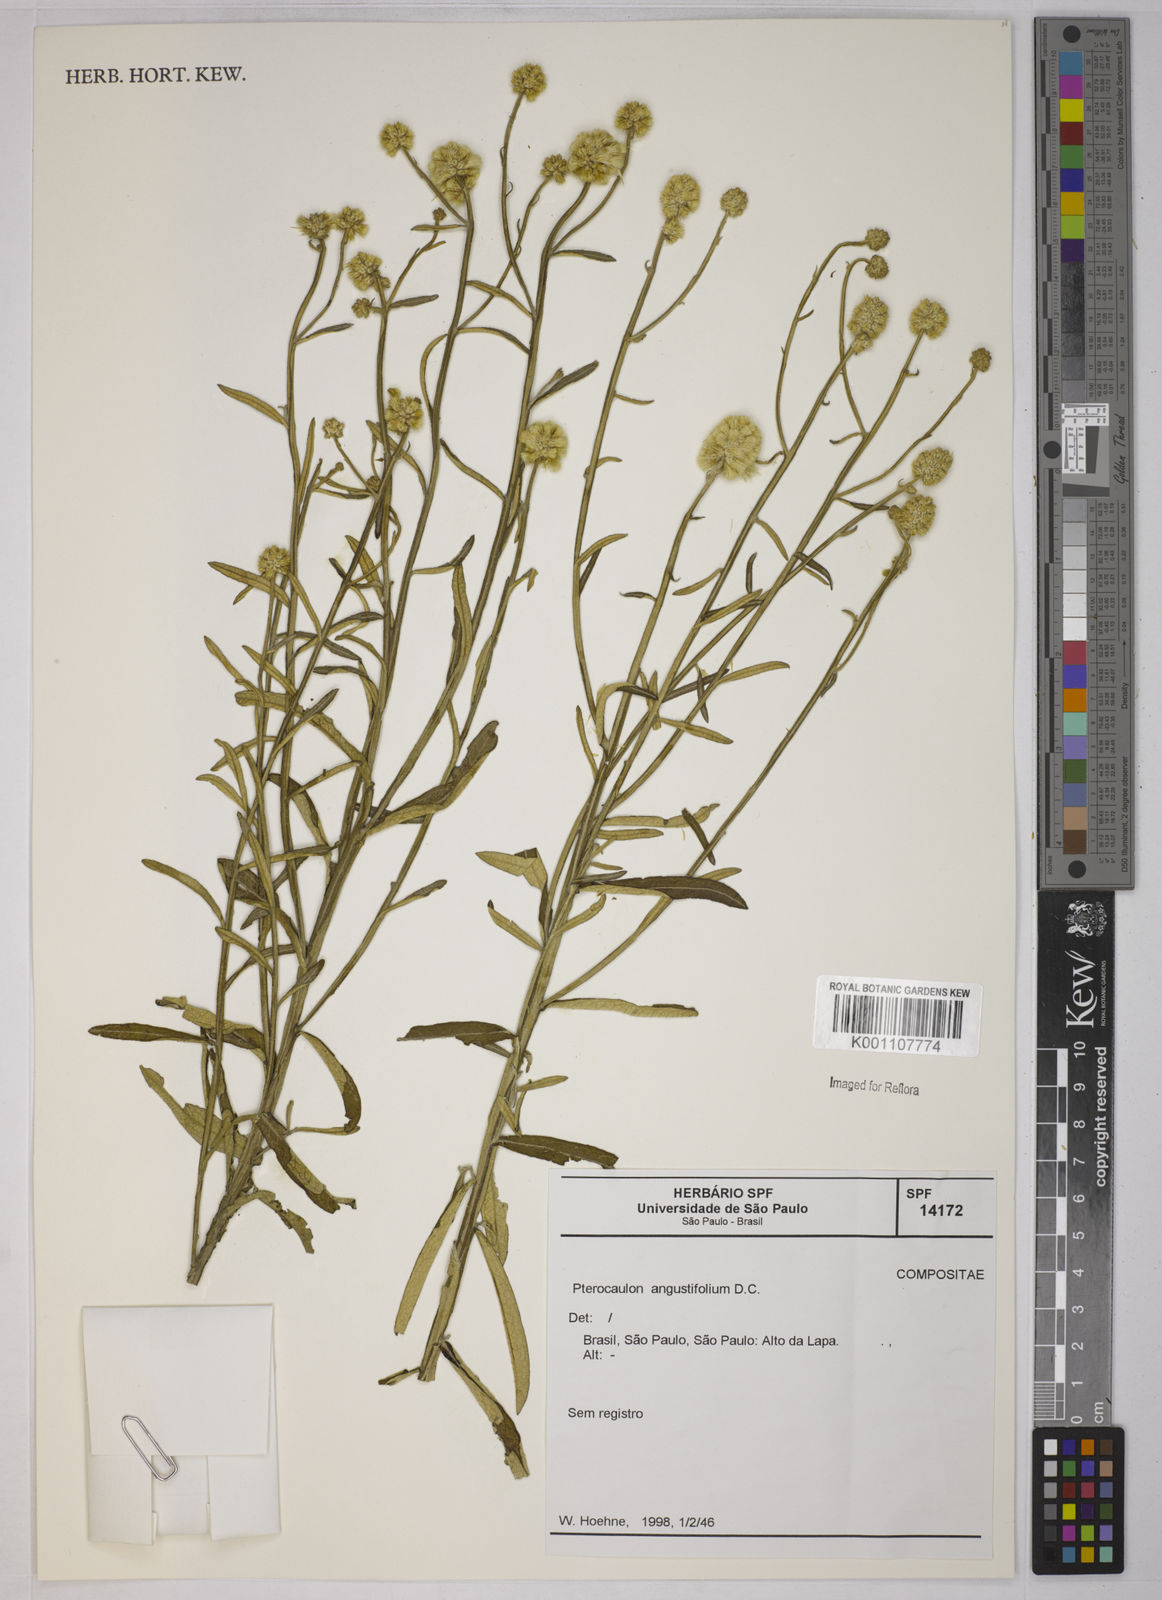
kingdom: Plantae
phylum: Tracheophyta
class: Magnoliopsida
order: Asterales
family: Asteraceae
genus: Pterocaulon
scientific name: Pterocaulon angustifolium
